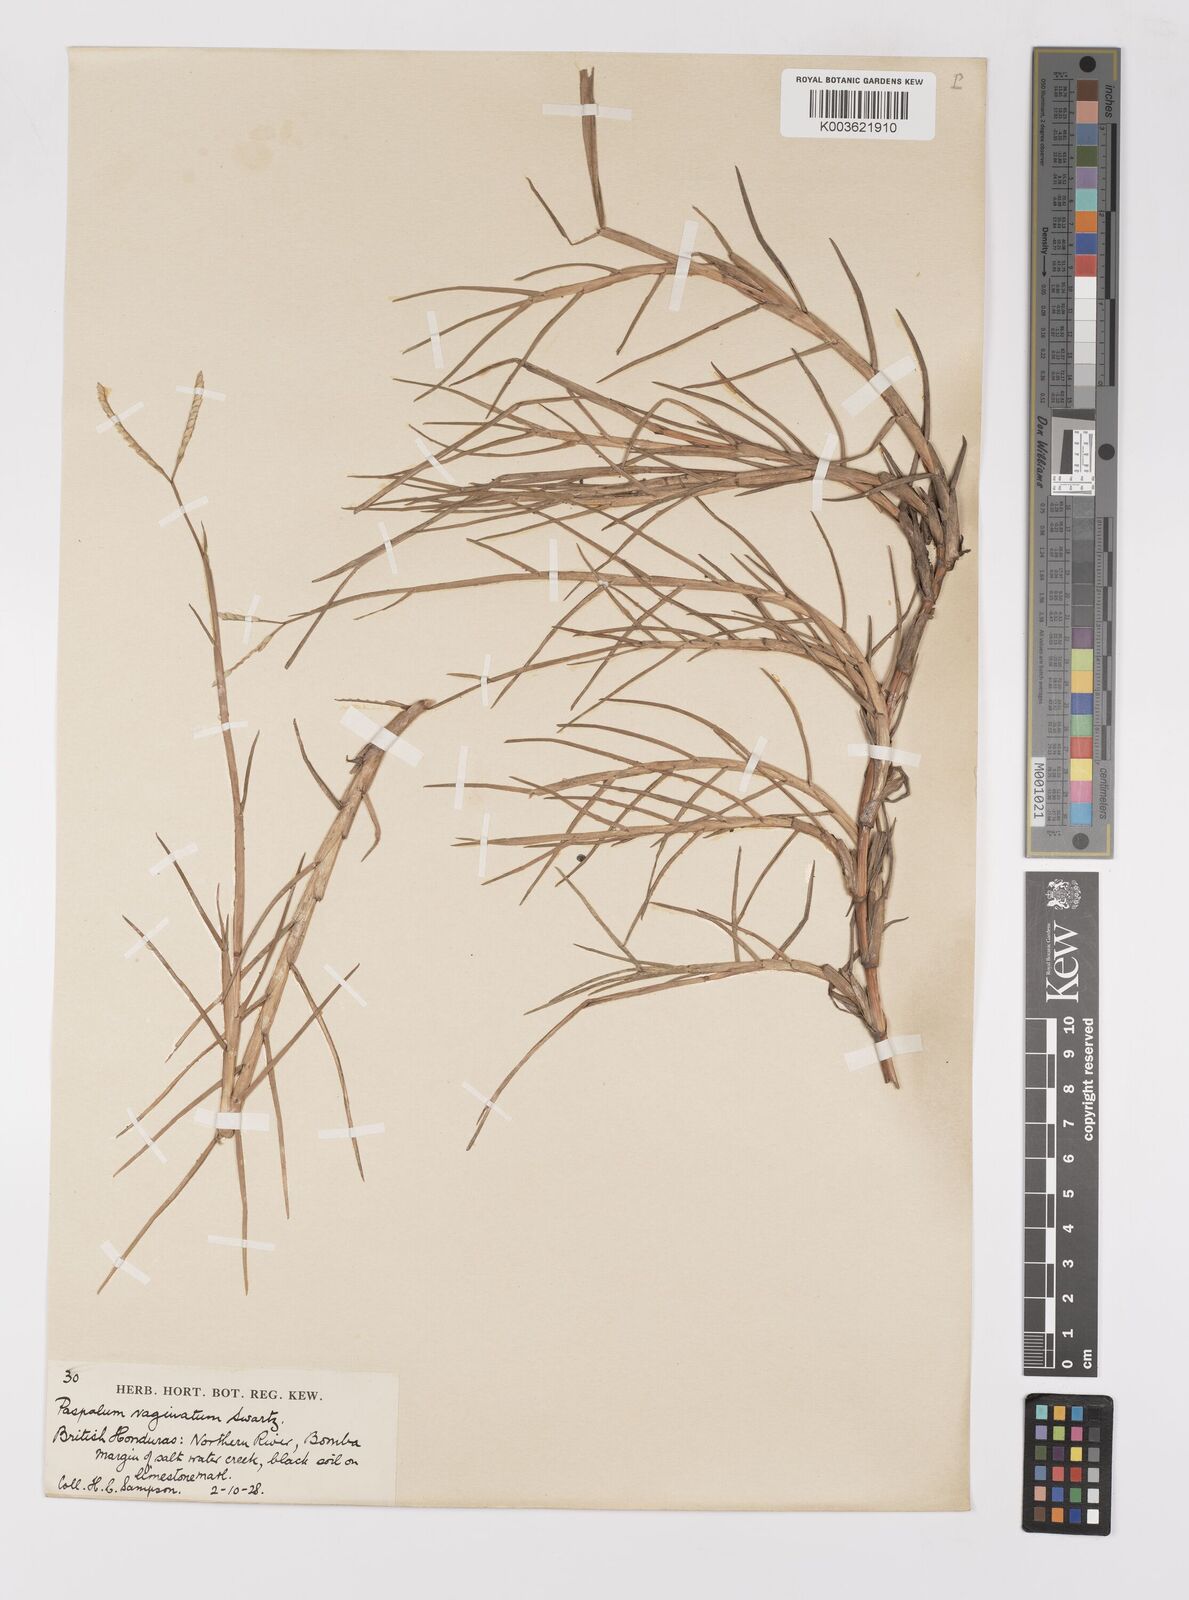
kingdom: Plantae
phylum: Tracheophyta
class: Liliopsida
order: Poales
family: Poaceae
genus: Paspalum
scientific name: Paspalum vaginatum
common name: Seashore paspalum
